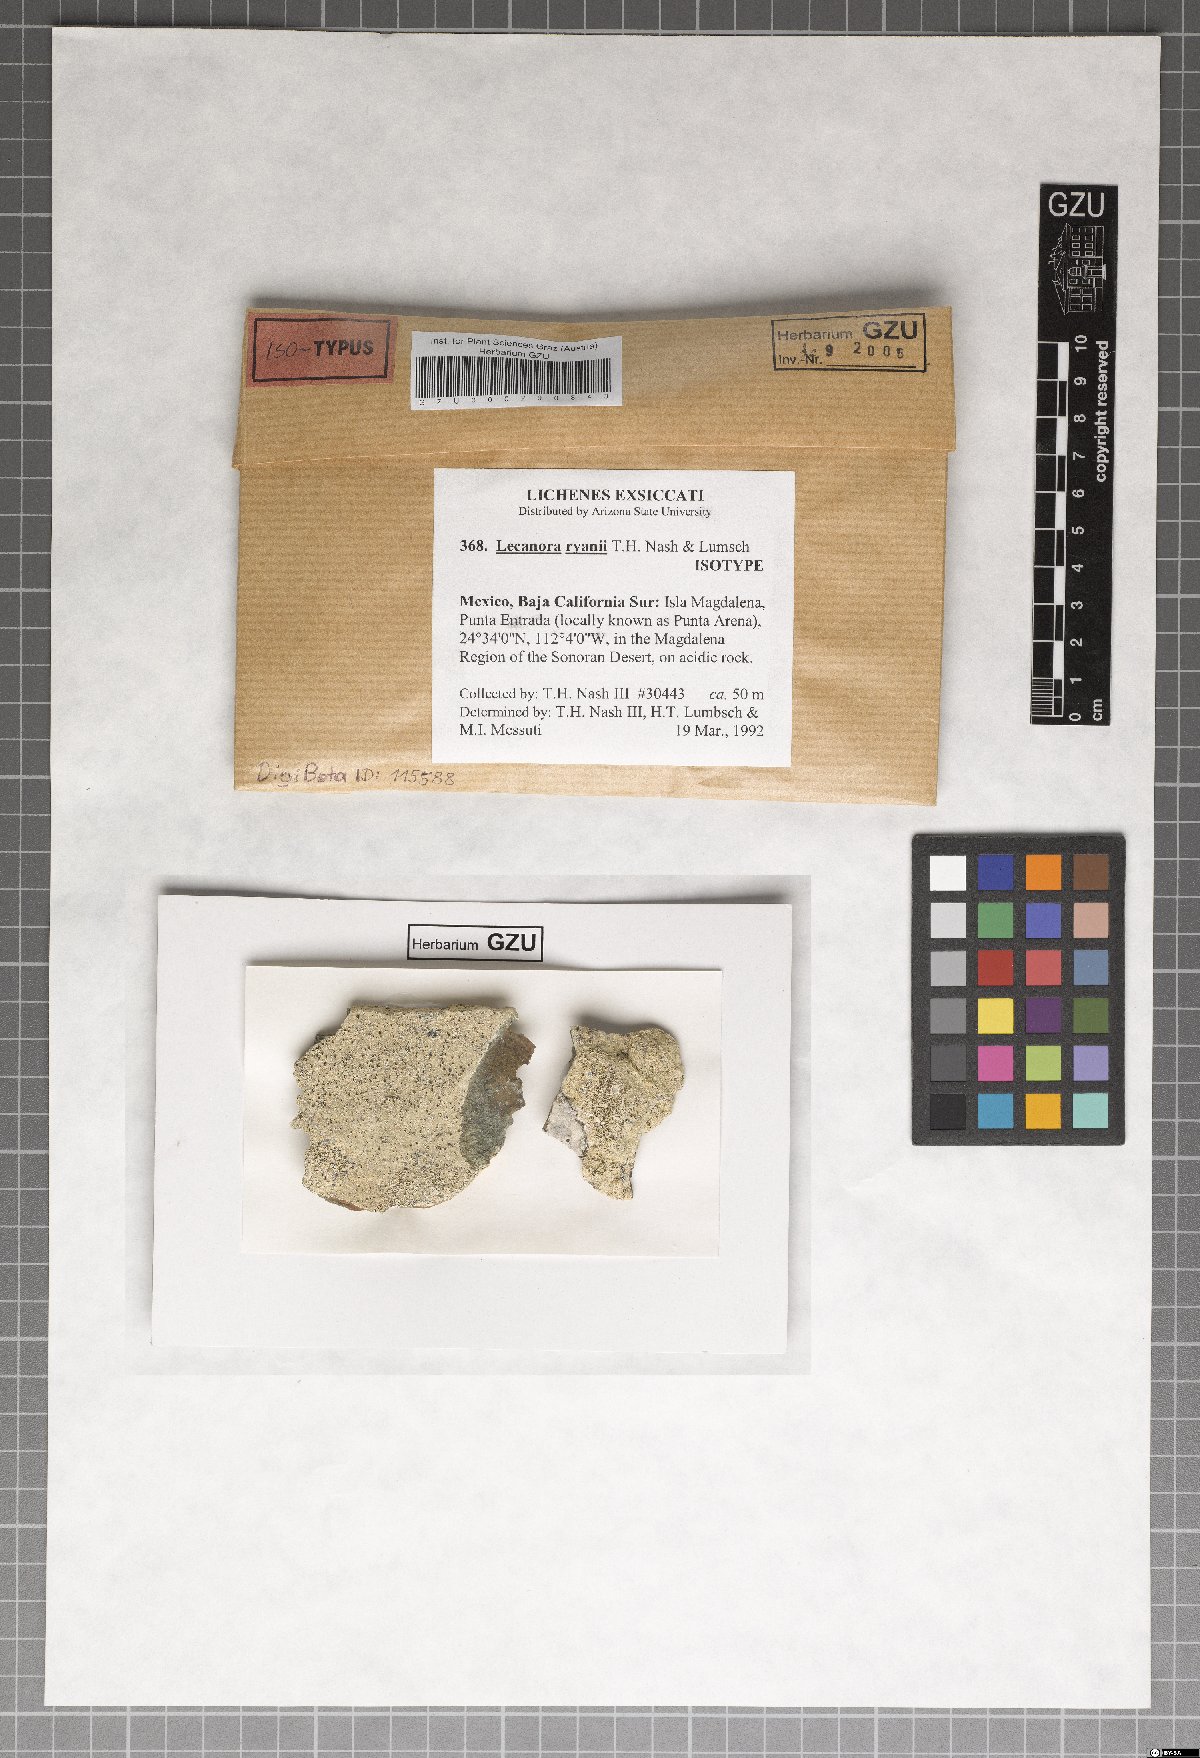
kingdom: Fungi
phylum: Ascomycota
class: Lecanoromycetes
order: Lecanorales
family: Lecanoraceae
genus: Lecanora
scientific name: Lecanora ryanii
